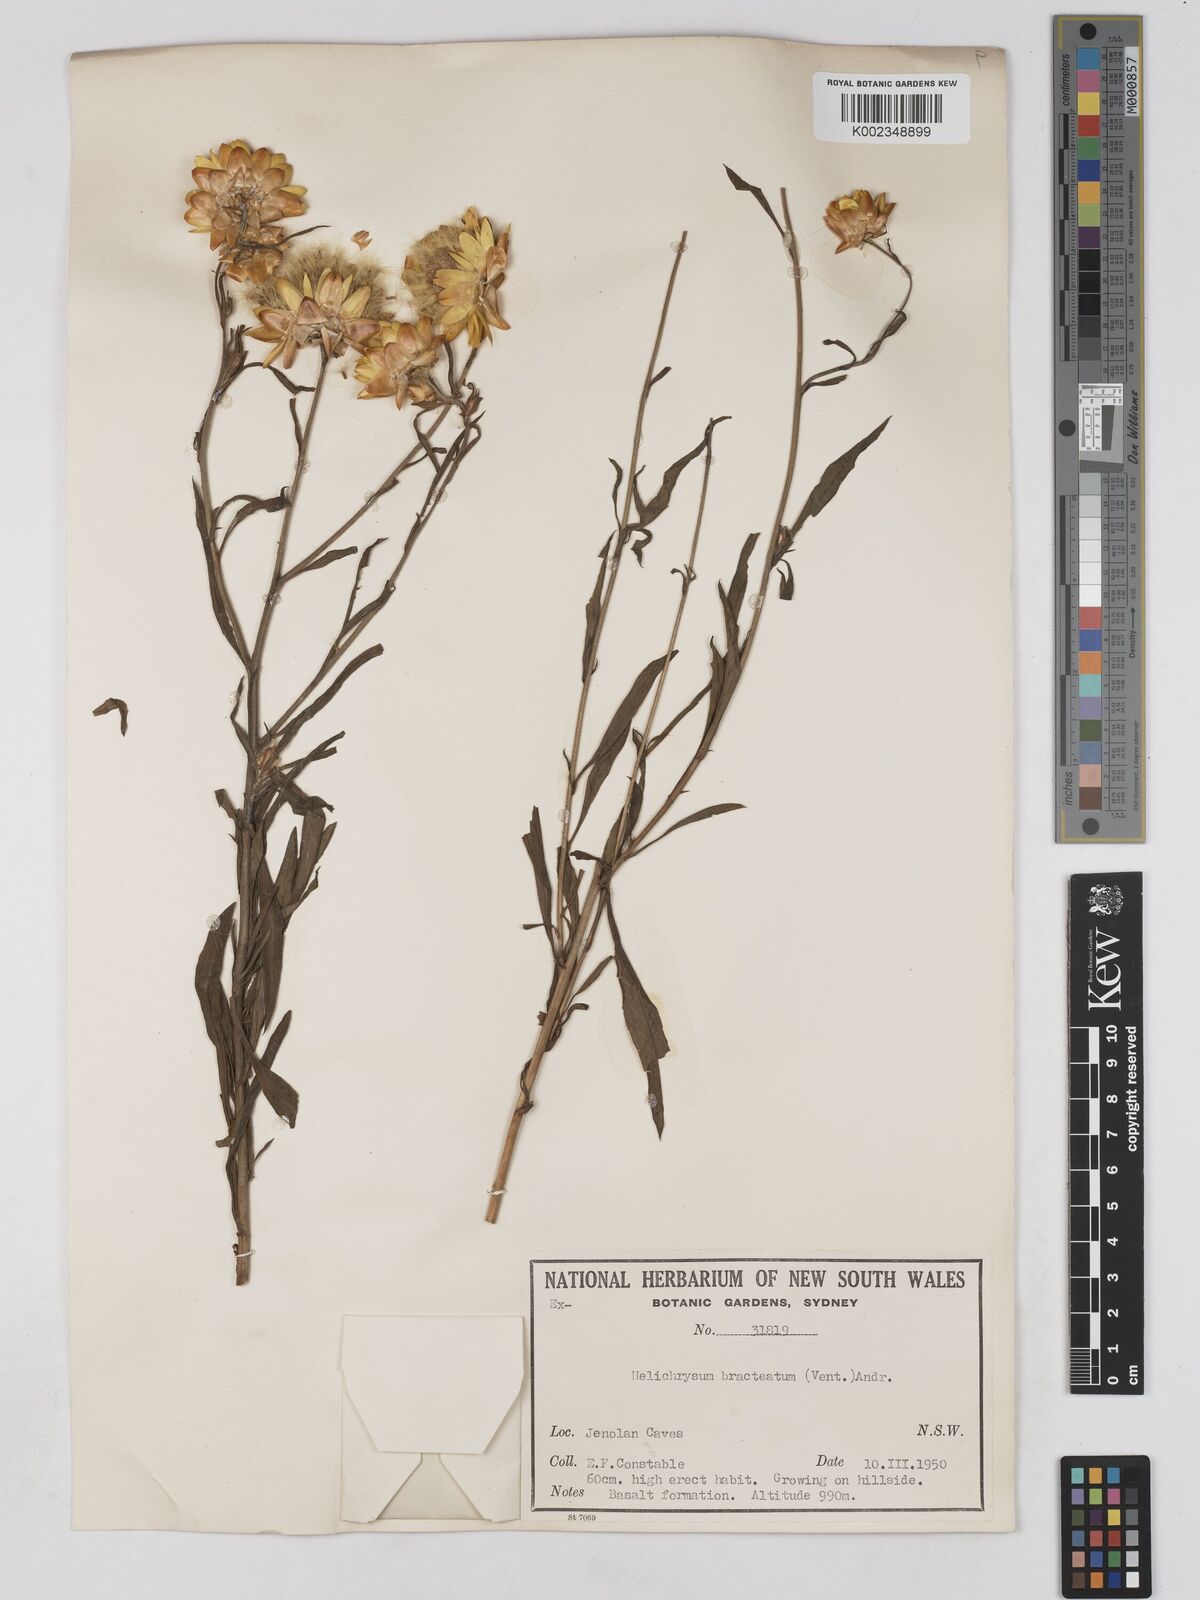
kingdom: Plantae
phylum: Tracheophyta
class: Magnoliopsida
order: Asterales
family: Asteraceae
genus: Xerochrysum
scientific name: Xerochrysum bracteatum
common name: Bracted strawflower
